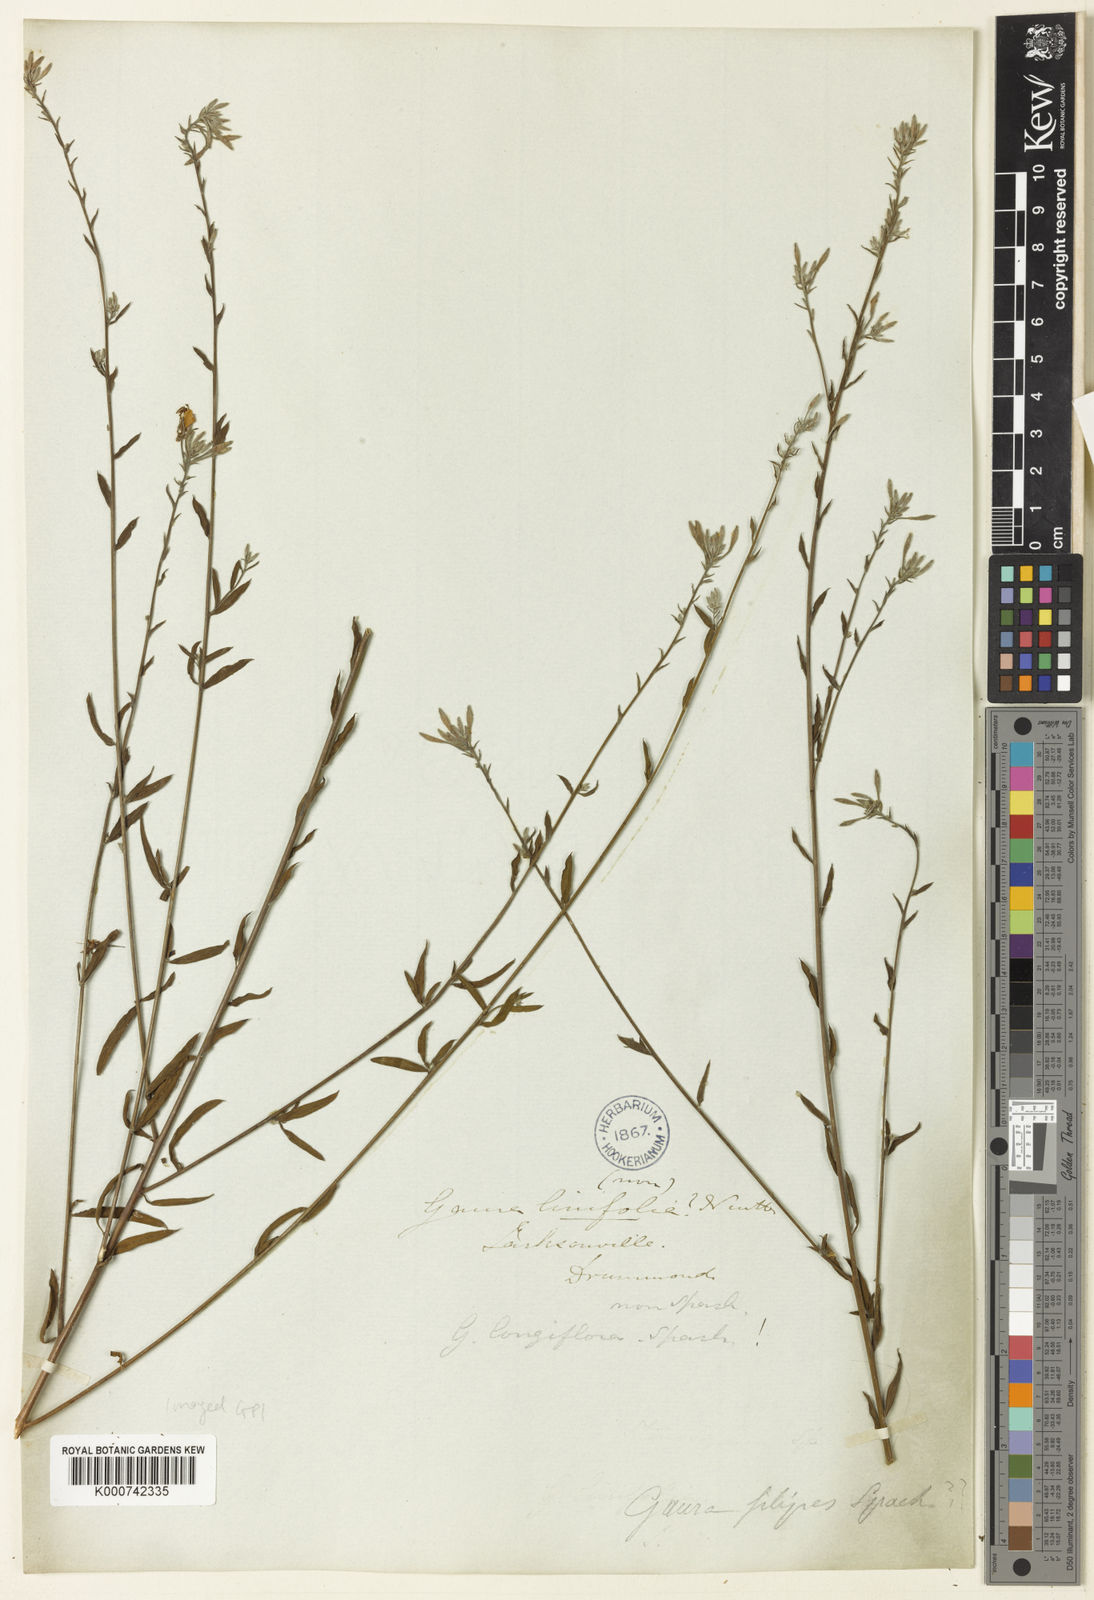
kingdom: Plantae
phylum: Tracheophyta
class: Magnoliopsida
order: Myrtales
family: Onagraceae
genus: Oenothera
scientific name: Oenothera filipes
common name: Slenderstalk beeblossom
